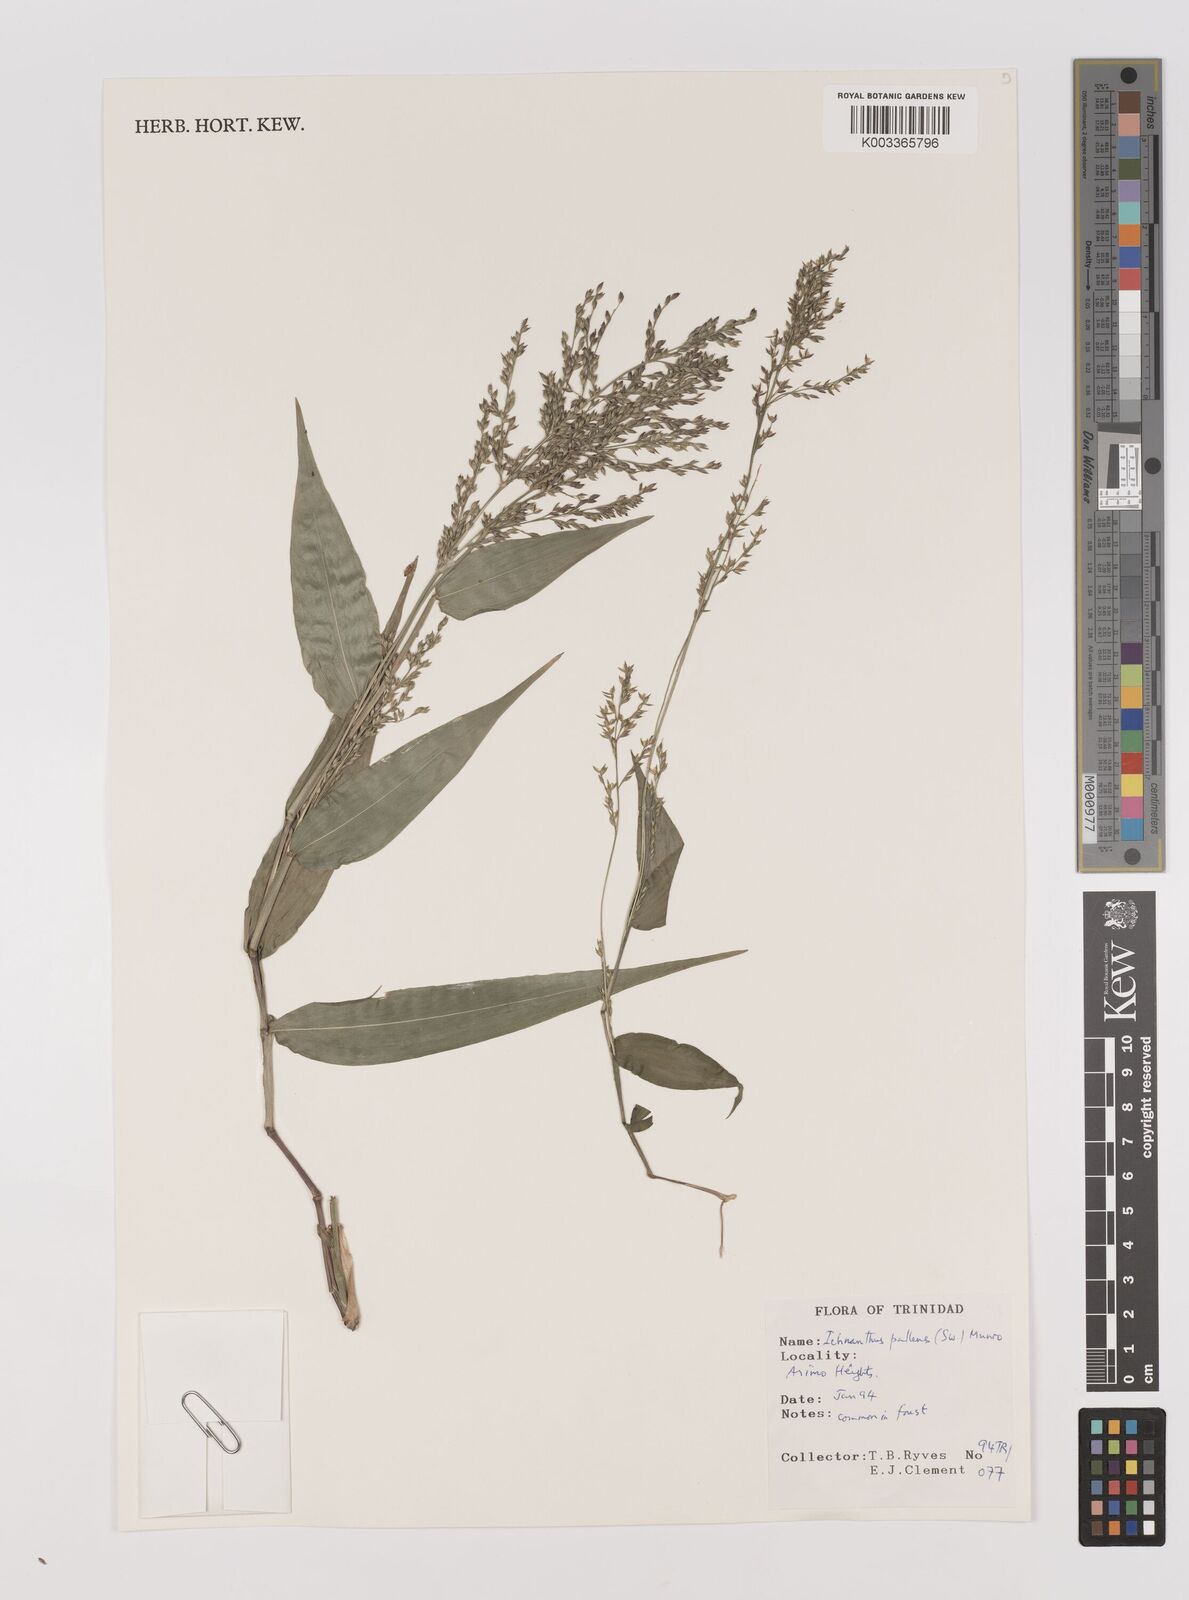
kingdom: Plantae
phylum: Tracheophyta
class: Liliopsida
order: Poales
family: Poaceae
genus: Ichnanthus
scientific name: Ichnanthus pallens
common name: Water grass
